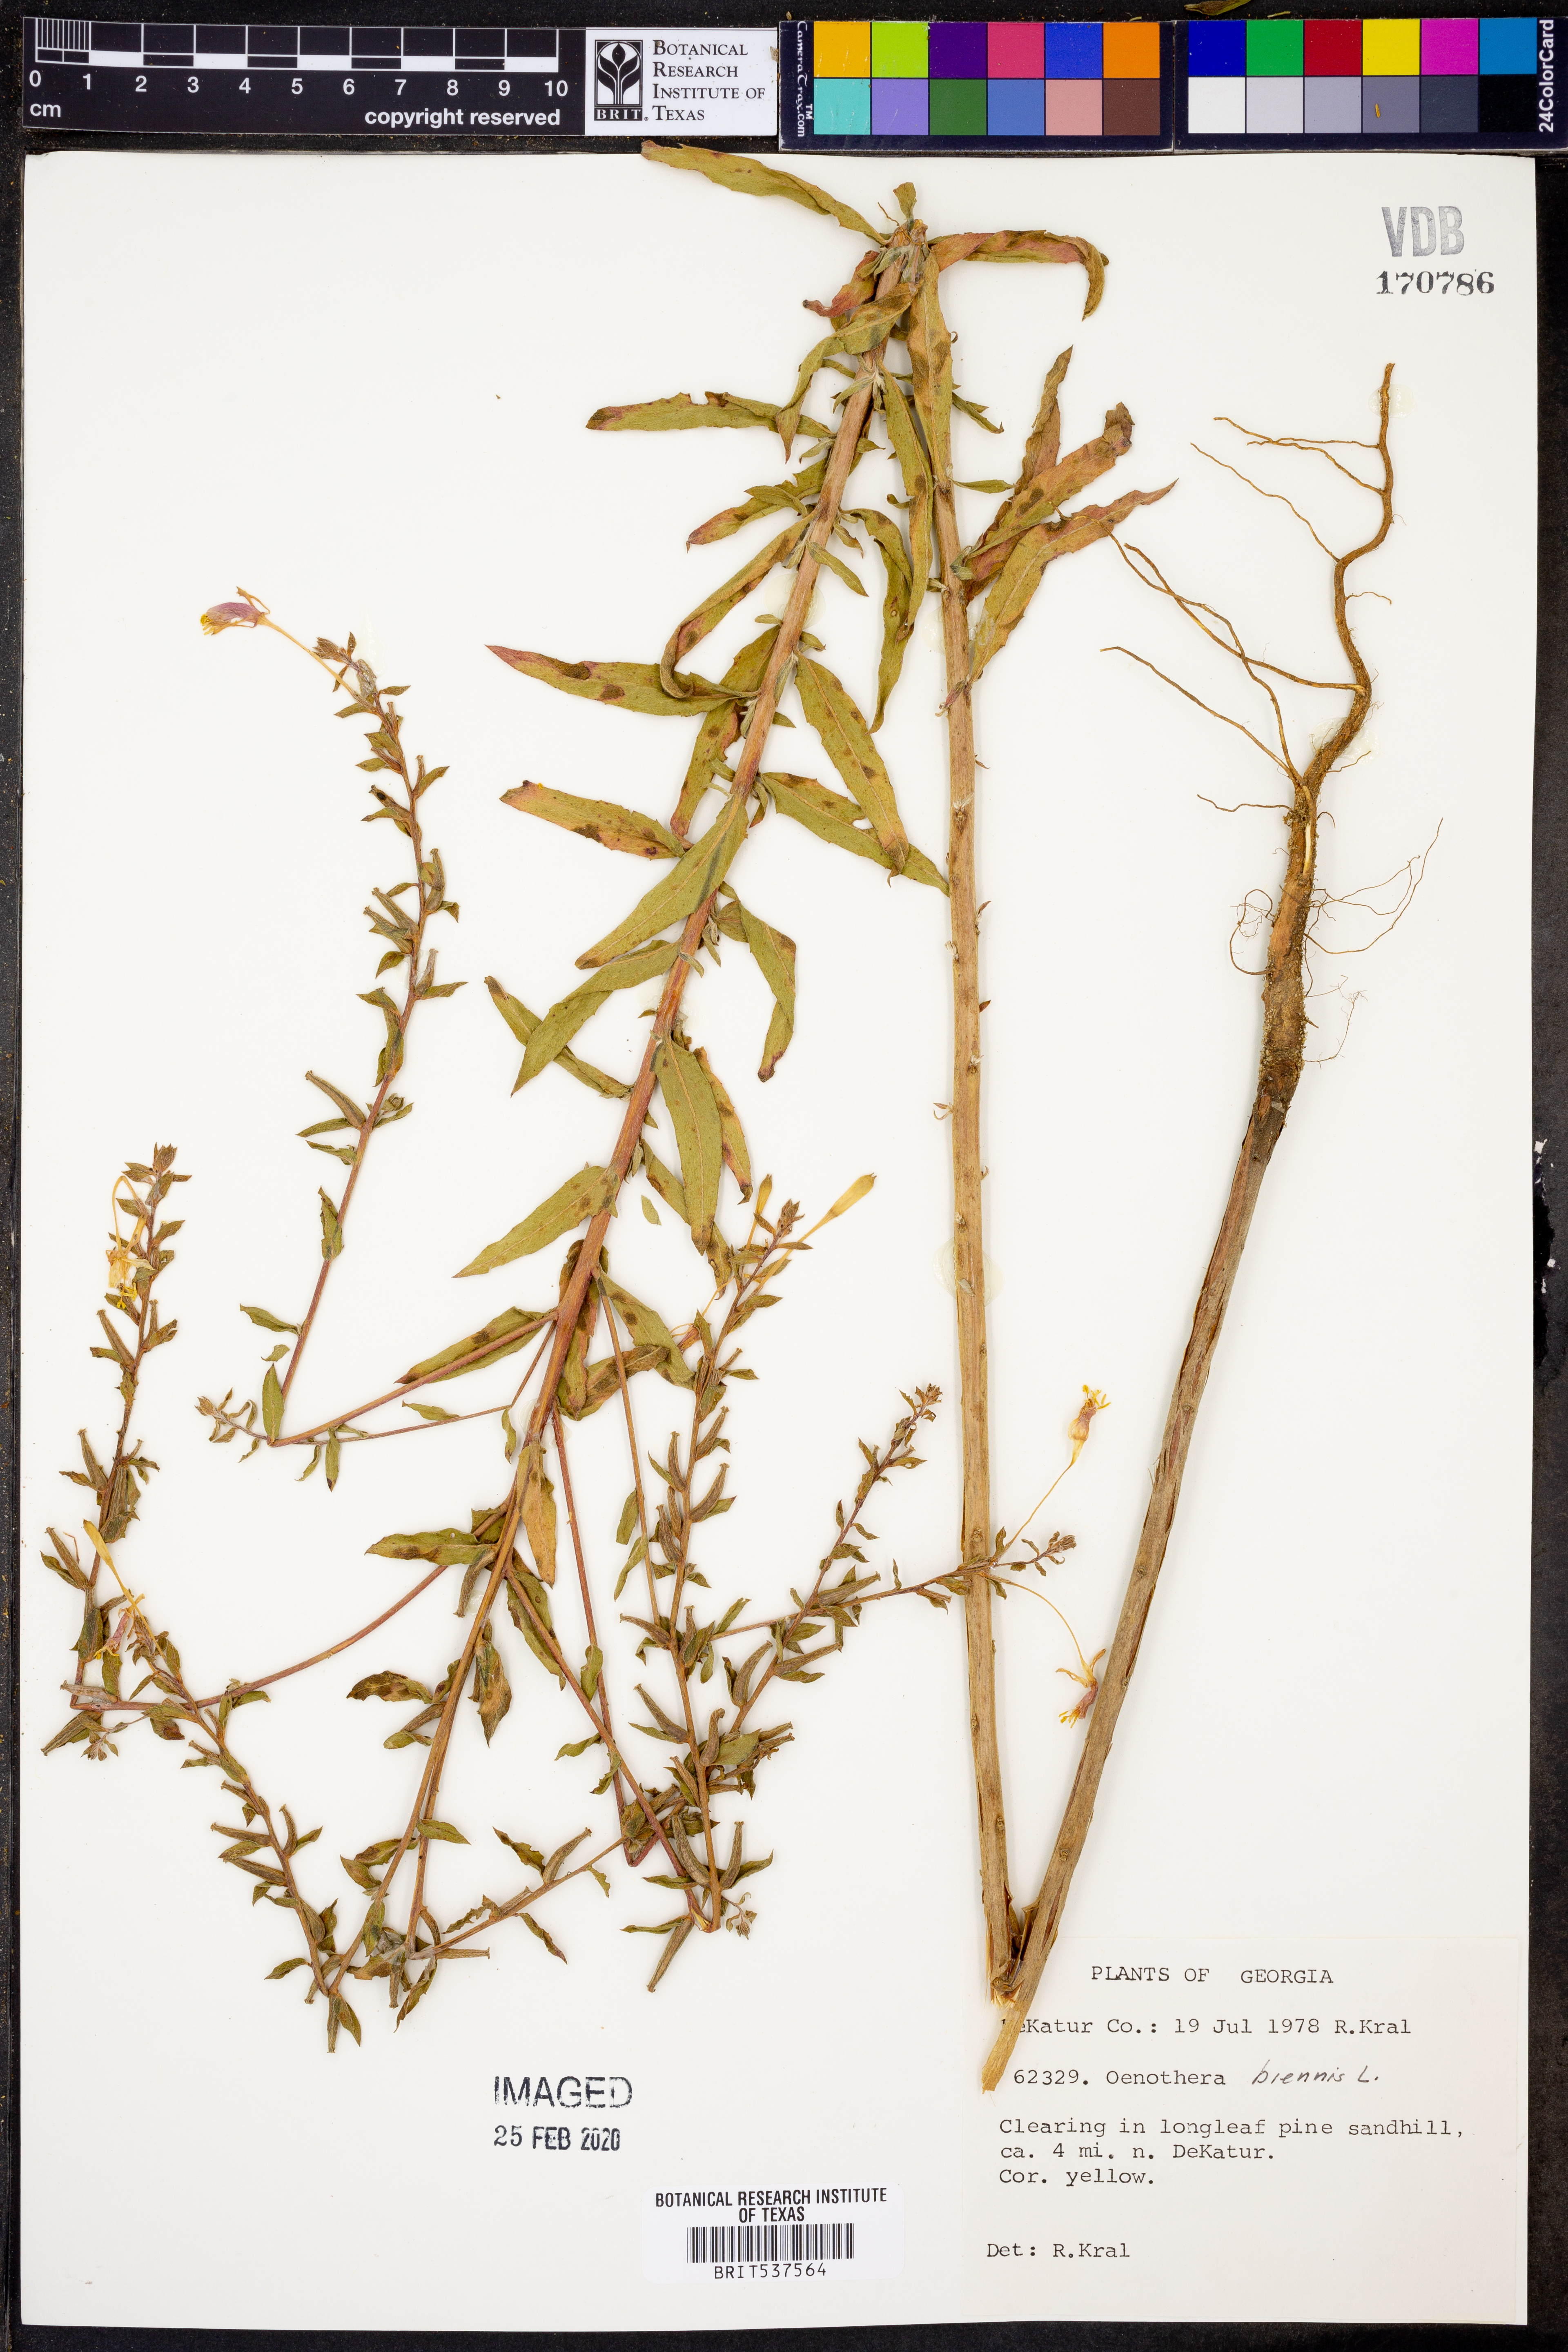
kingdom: Plantae
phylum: Tracheophyta
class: Magnoliopsida
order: Myrtales
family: Onagraceae
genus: Oenothera
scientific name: Oenothera biennis
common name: Common evening-primrose
